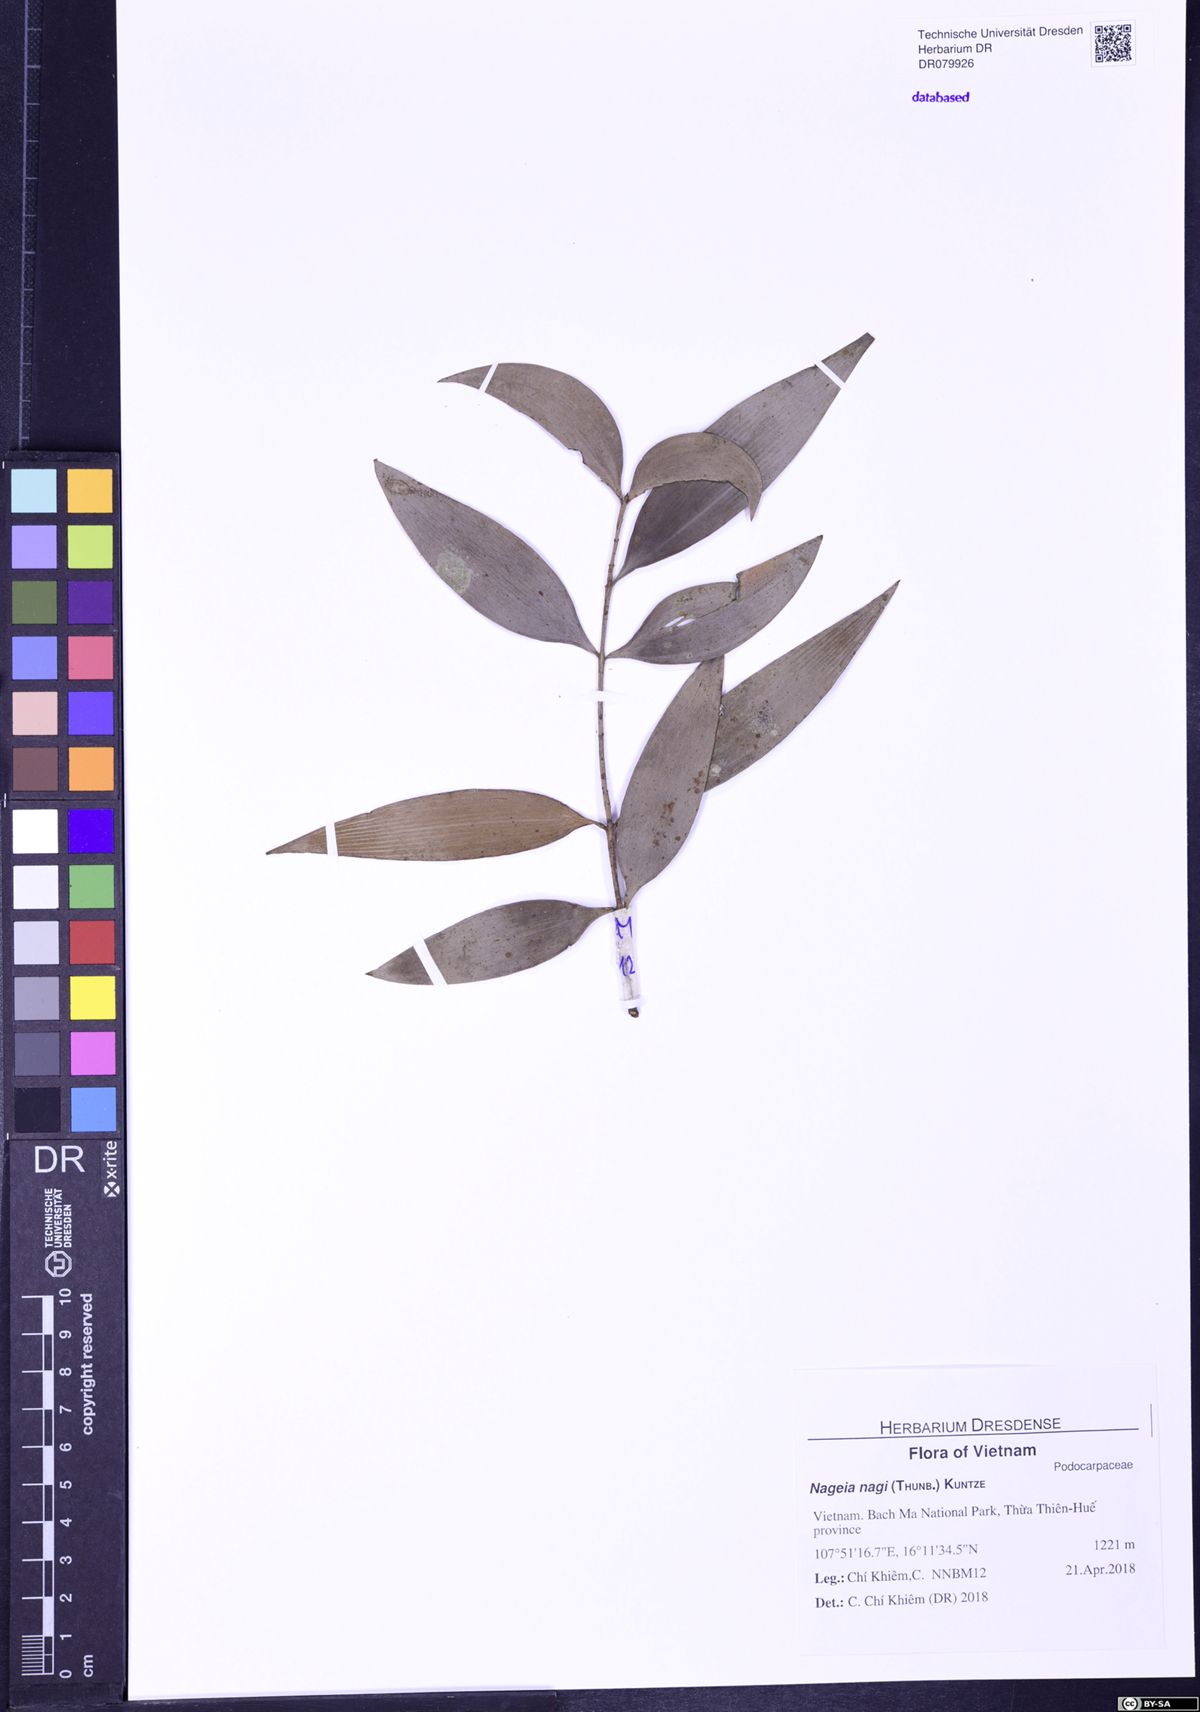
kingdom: Plantae
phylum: Tracheophyta
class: Pinopsida
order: Pinales
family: Podocarpaceae
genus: Nageia
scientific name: Nageia nagi
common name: Kaphal
